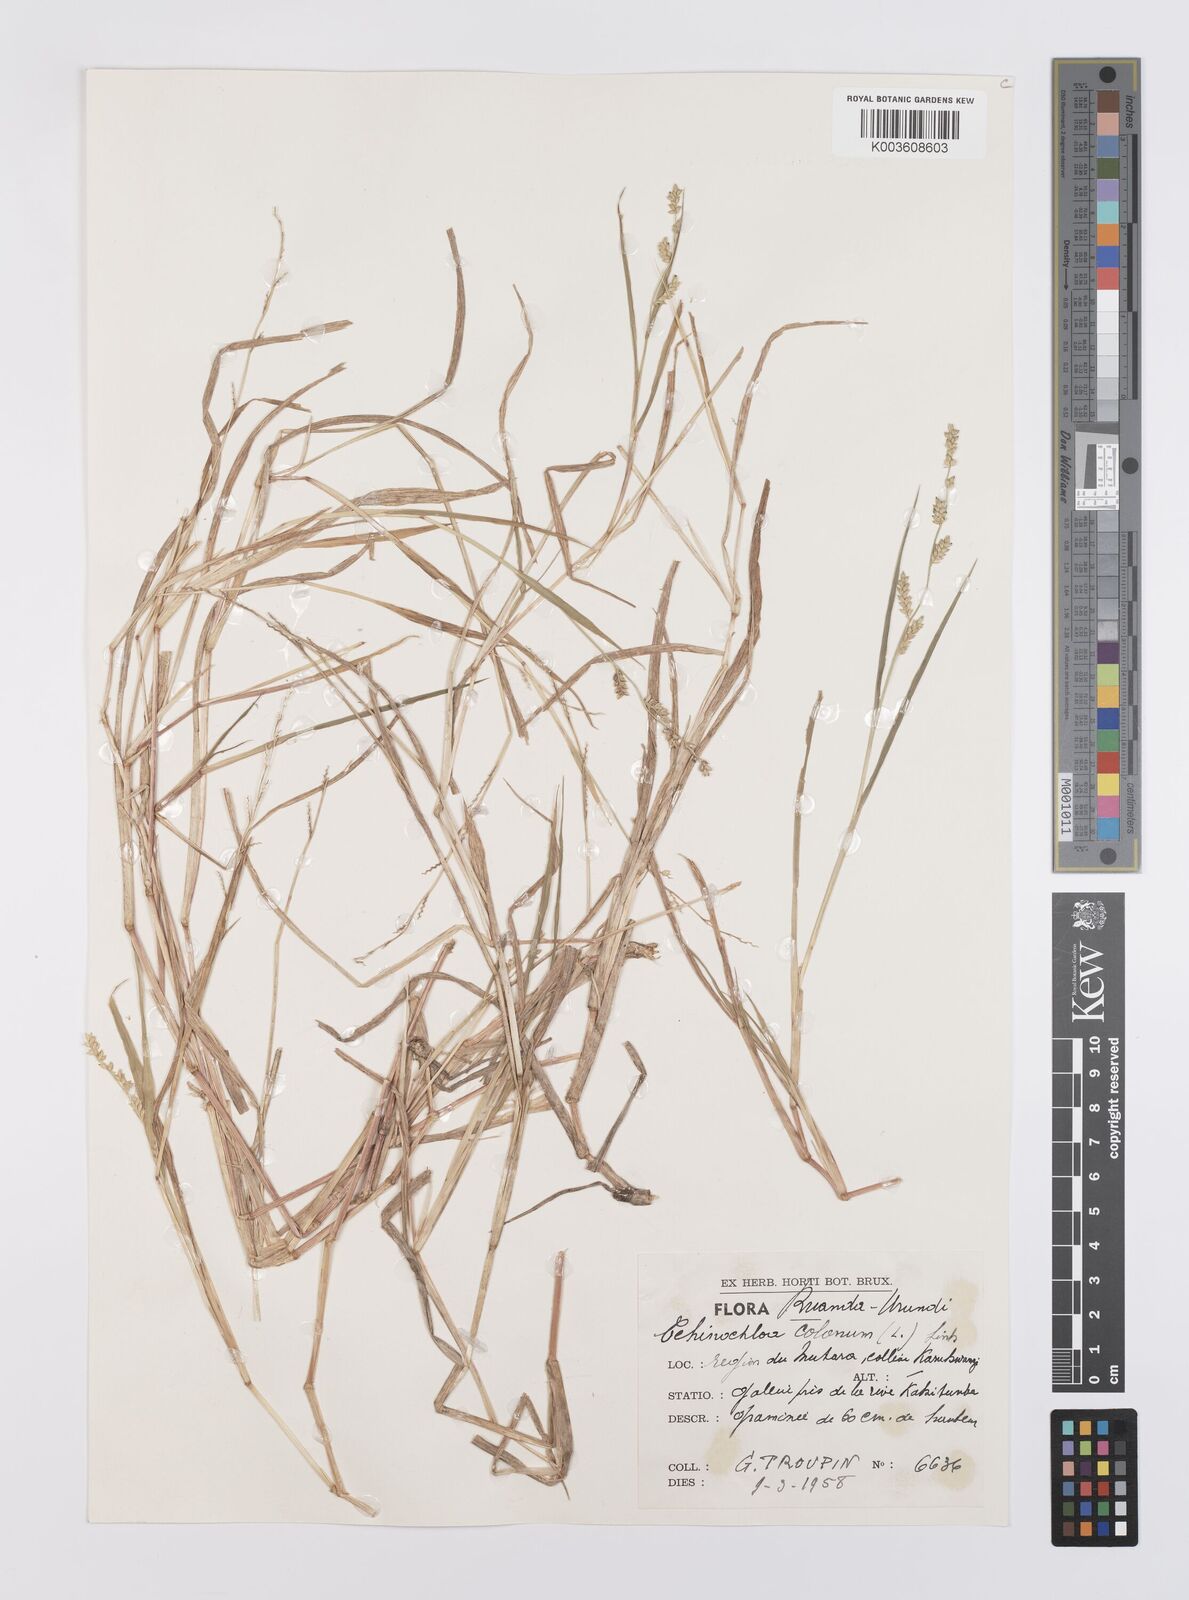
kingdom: Plantae
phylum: Tracheophyta
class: Liliopsida
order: Poales
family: Poaceae
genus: Echinochloa
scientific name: Echinochloa colonum
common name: Jungle rice
